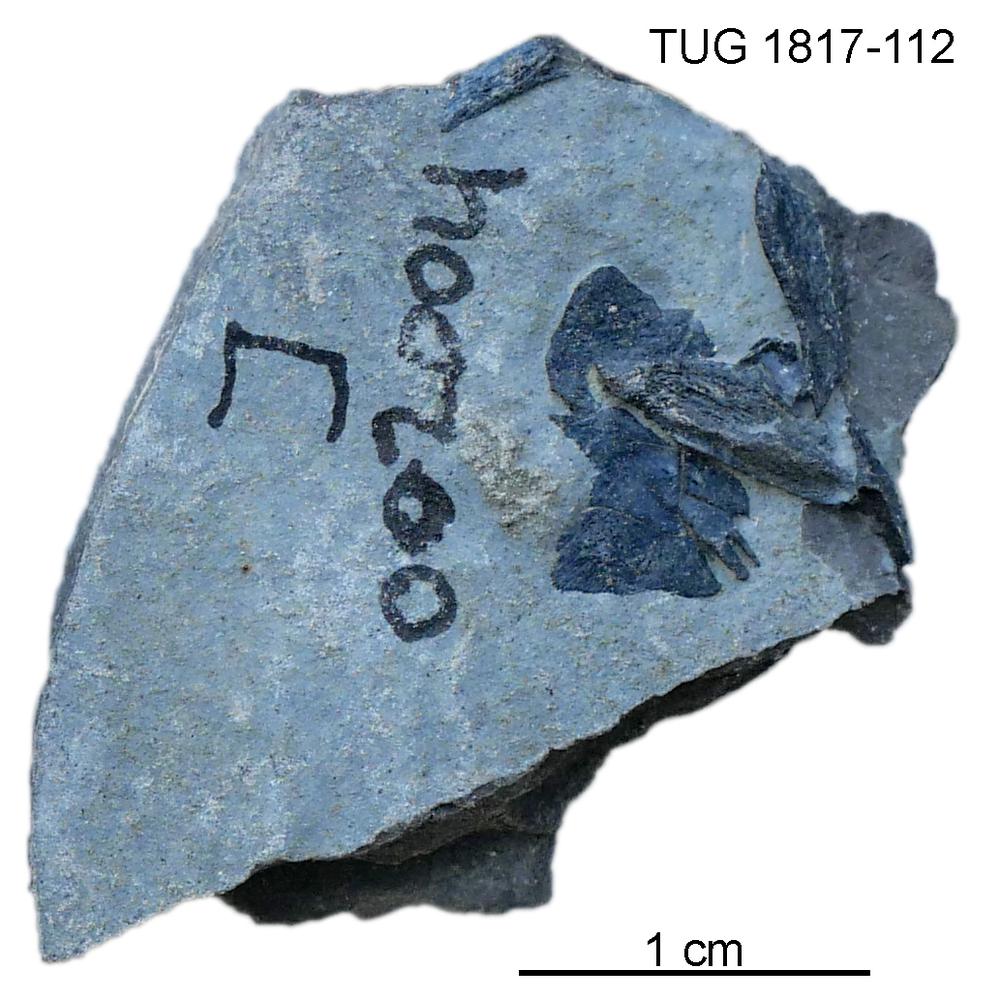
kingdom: Animalia
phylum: Chordata
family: Coccosteidae
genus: Millerosteus
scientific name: Millerosteus minor
